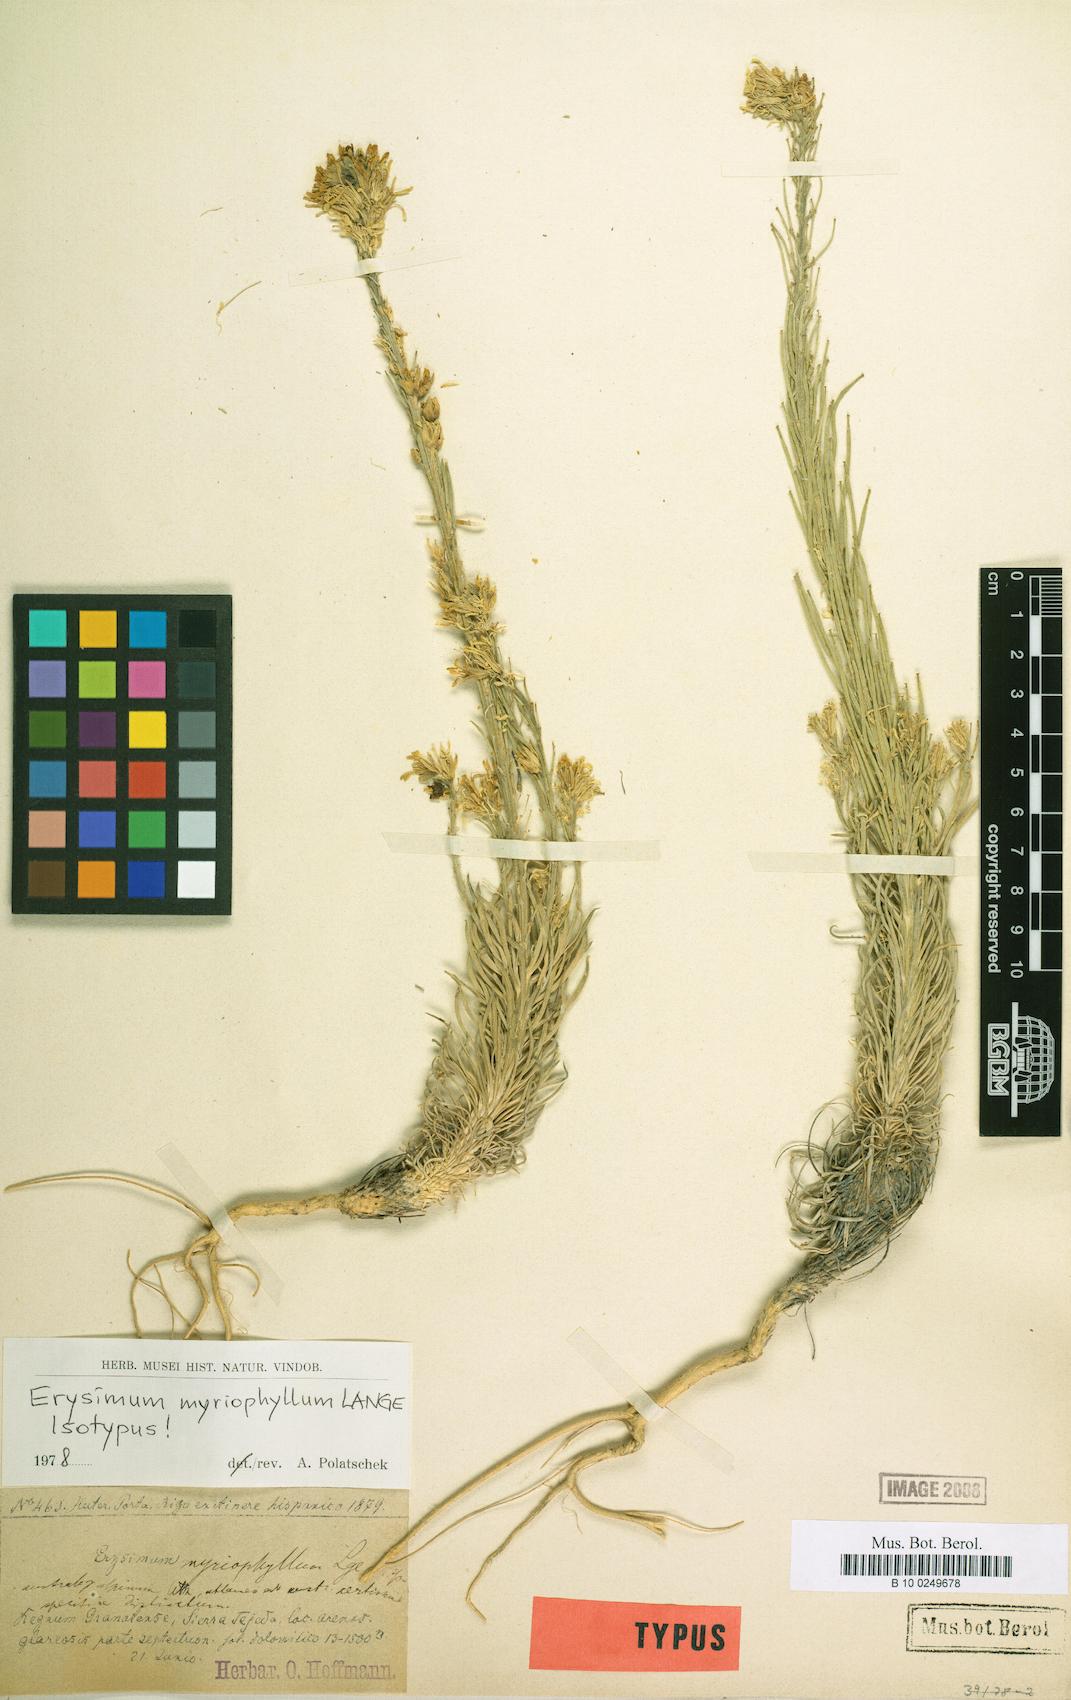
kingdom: Plantae
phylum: Tracheophyta
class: Magnoliopsida
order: Brassicales
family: Brassicaceae
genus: Erysimum
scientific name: Erysimum myriophyllum
